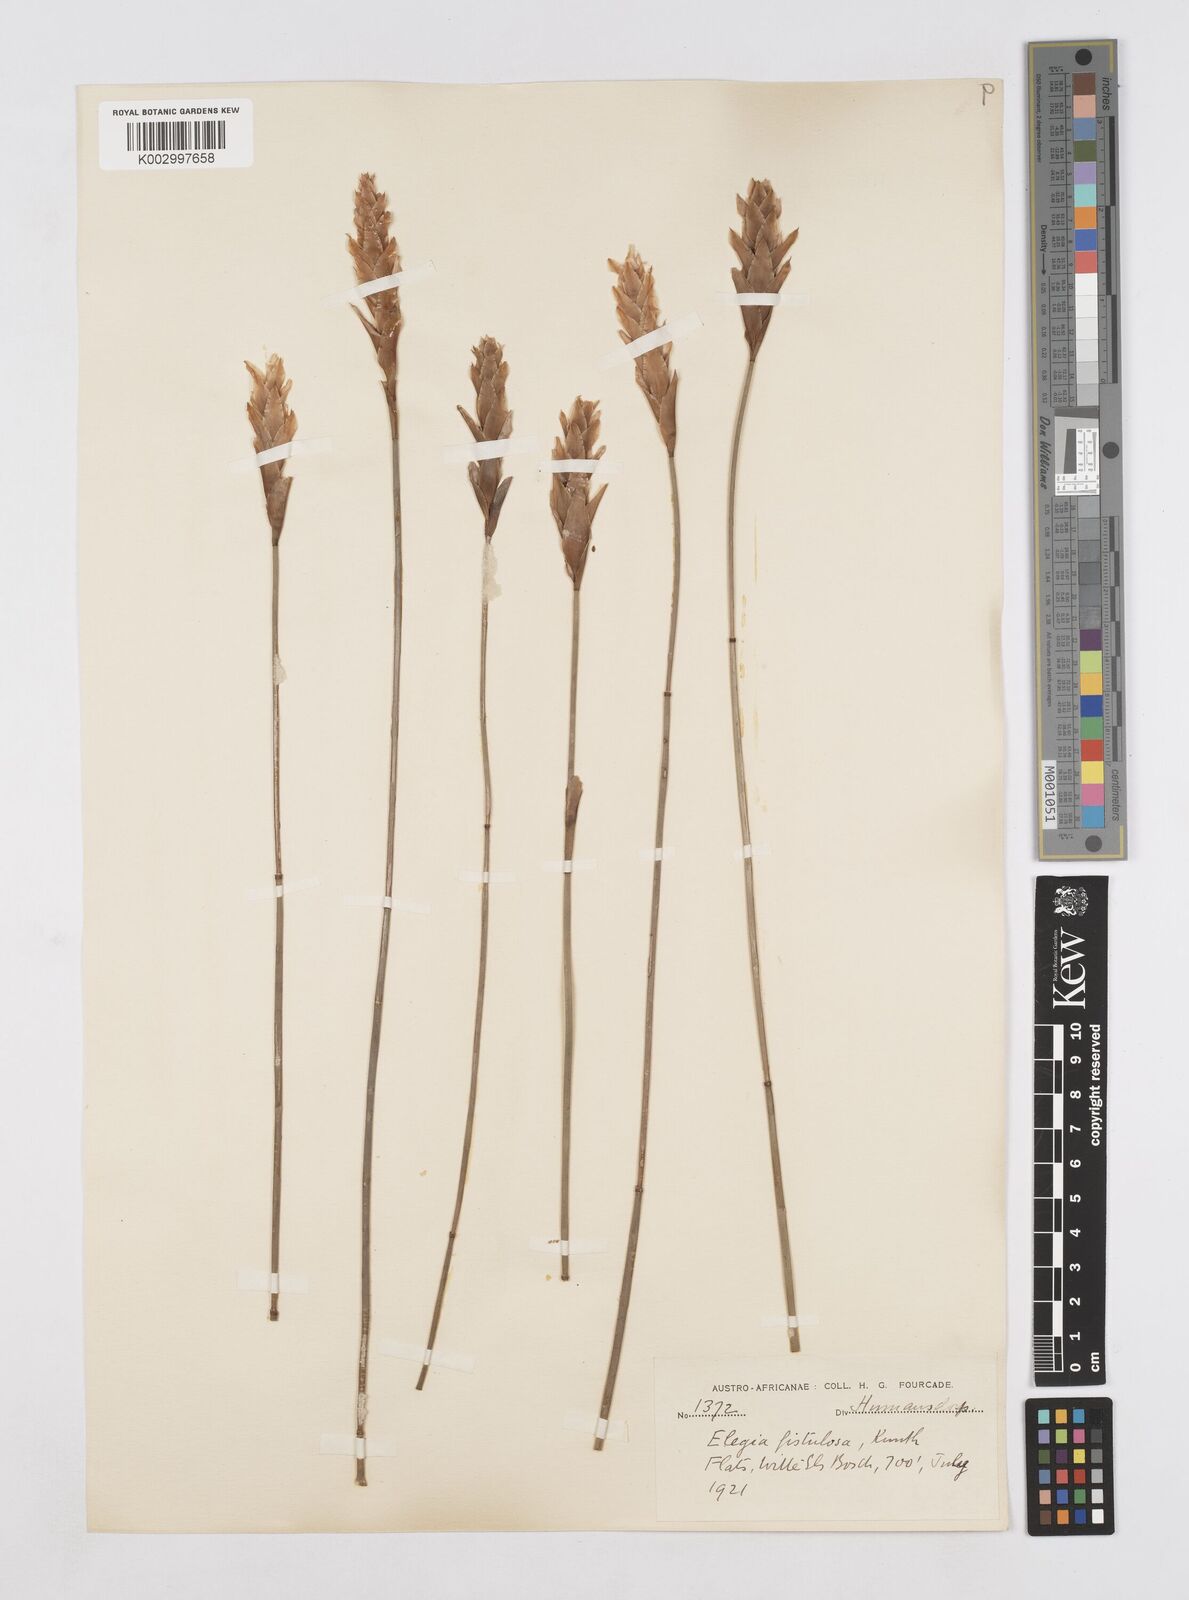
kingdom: Plantae
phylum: Tracheophyta
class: Liliopsida
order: Poales
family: Restionaceae
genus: Elegia
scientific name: Elegia fistulosa
